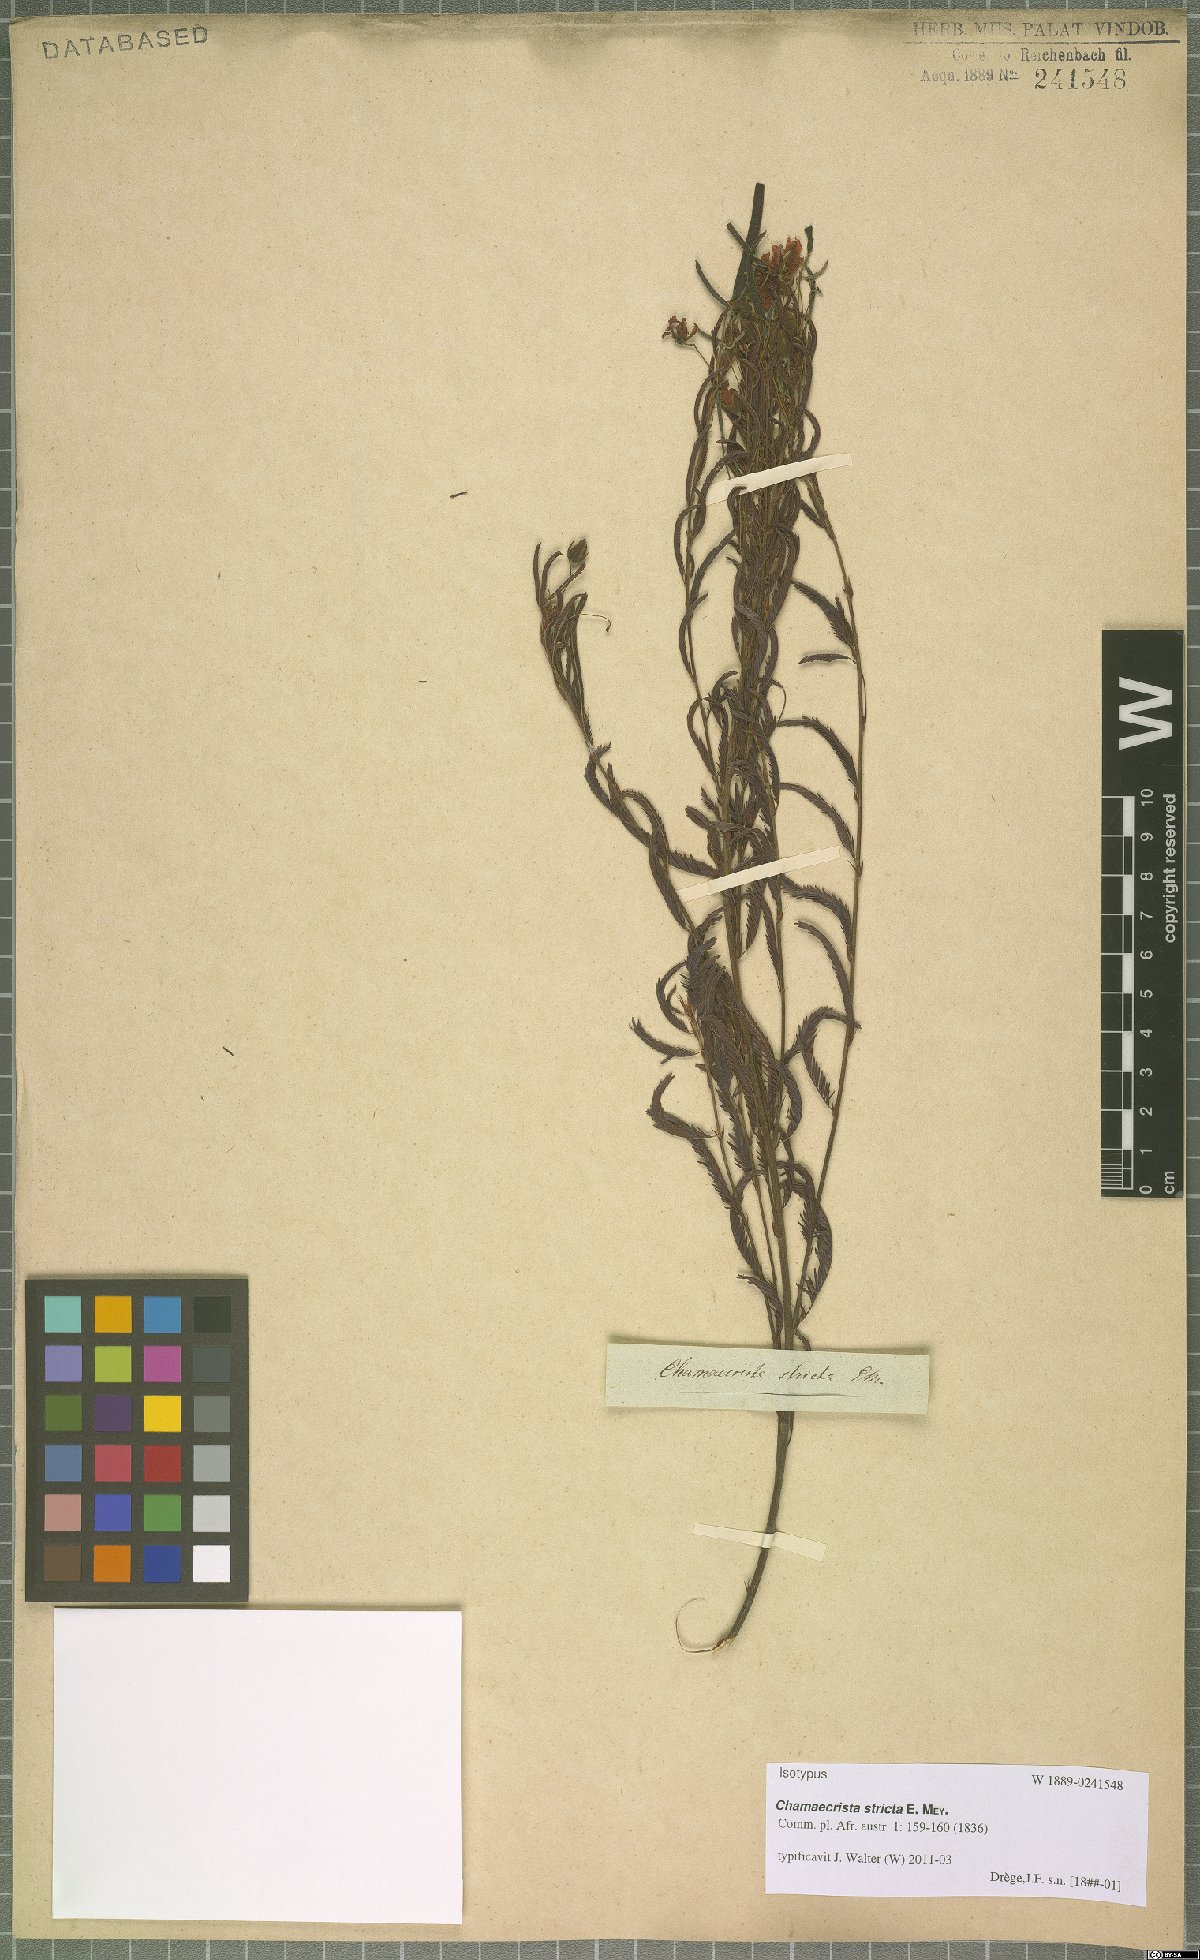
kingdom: Plantae
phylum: Tracheophyta
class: Magnoliopsida
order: Fabales
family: Fabaceae
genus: Chamaecrista
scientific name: Chamaecrista stricta
